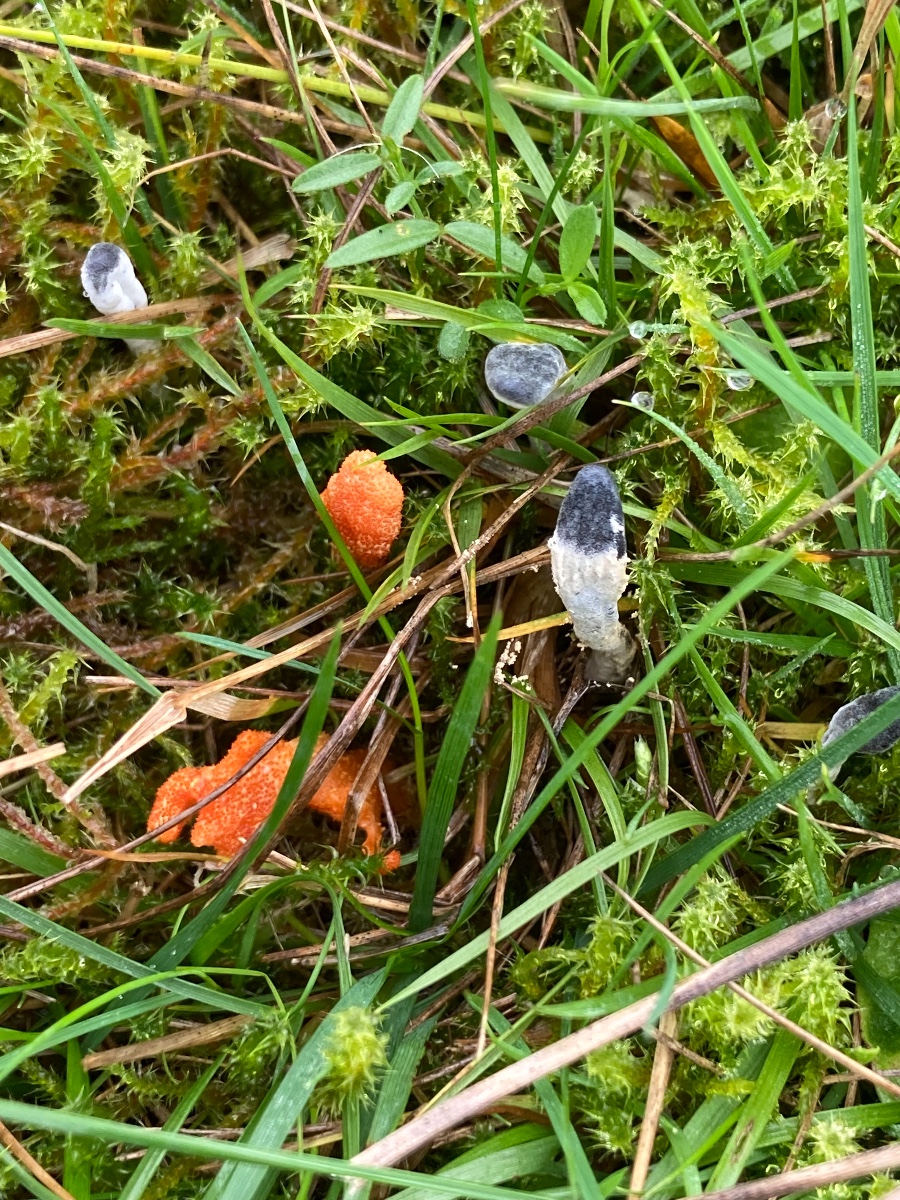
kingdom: Fungi
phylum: Ascomycota
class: Sordariomycetes
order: Hypocreales
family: Hypocreaceae
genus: Hypomyces
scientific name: Hypomyces papulasporae
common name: jordtunge-snylteskorpe
